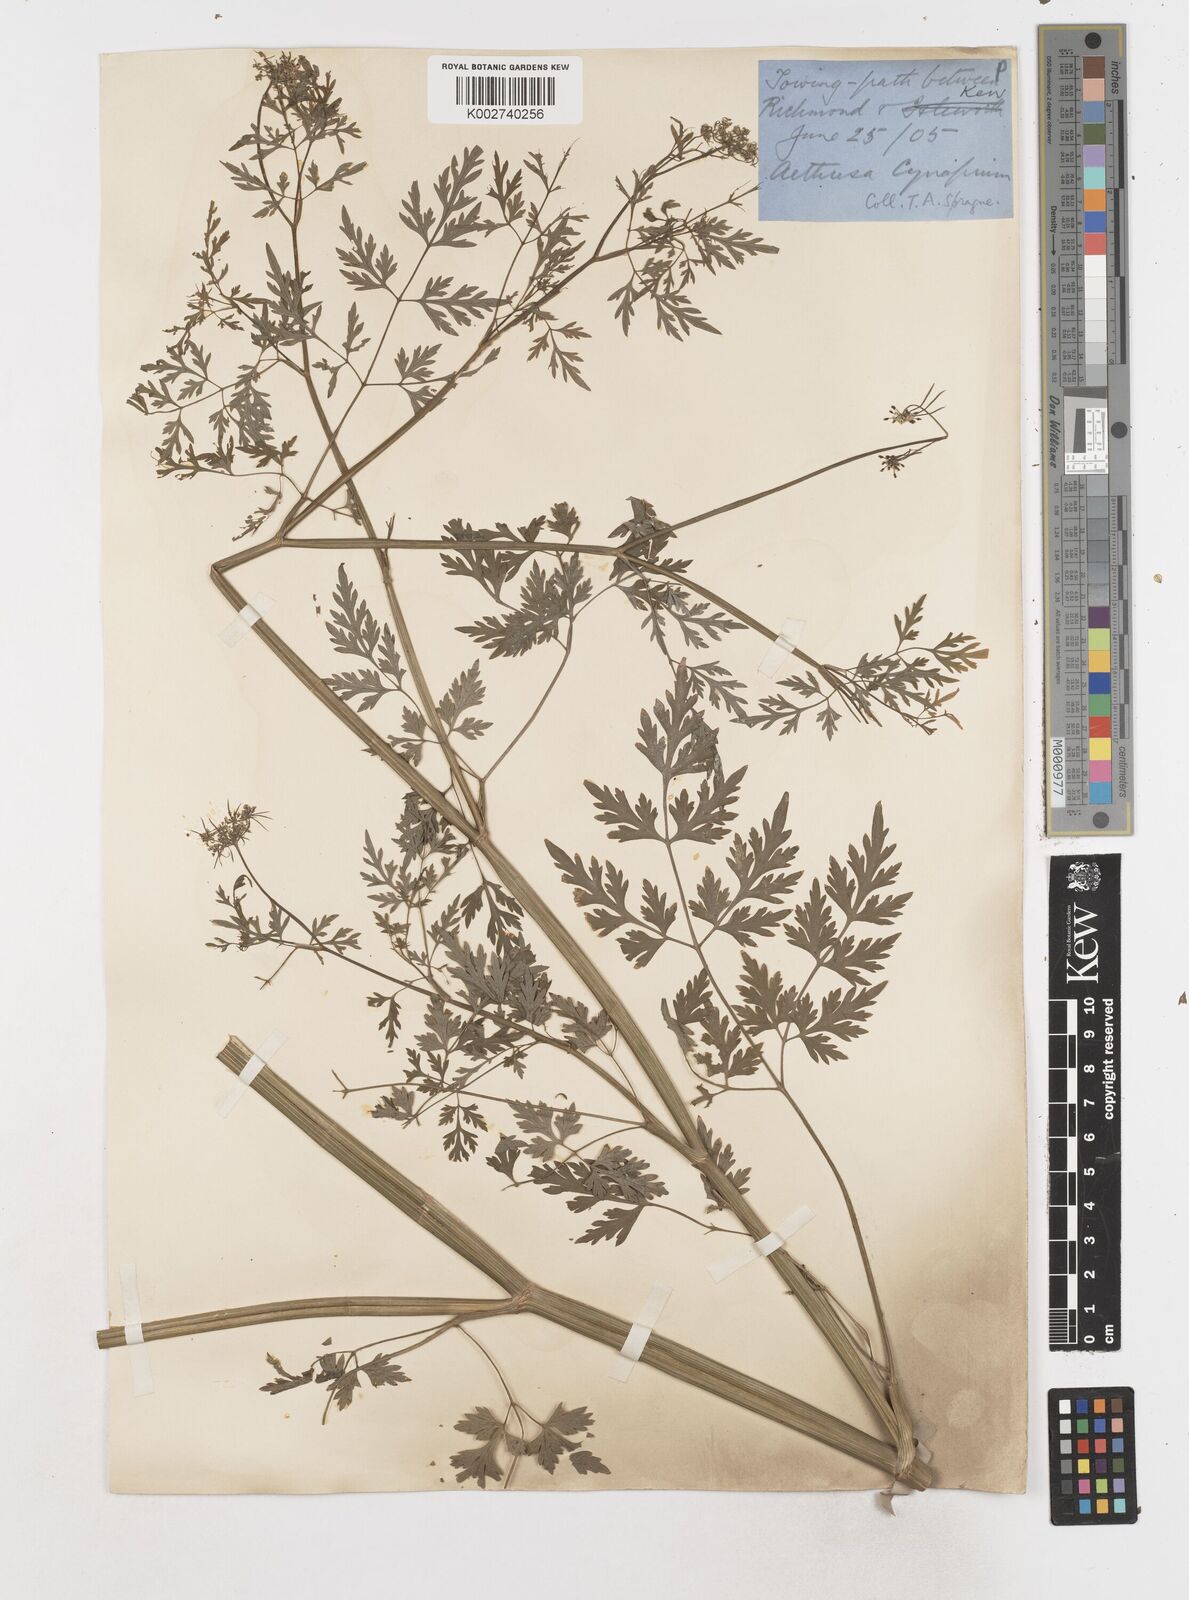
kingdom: Plantae
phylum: Tracheophyta
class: Magnoliopsida
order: Apiales
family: Apiaceae
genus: Aethusa
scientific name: Aethusa cynapium
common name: Fool's parsley
